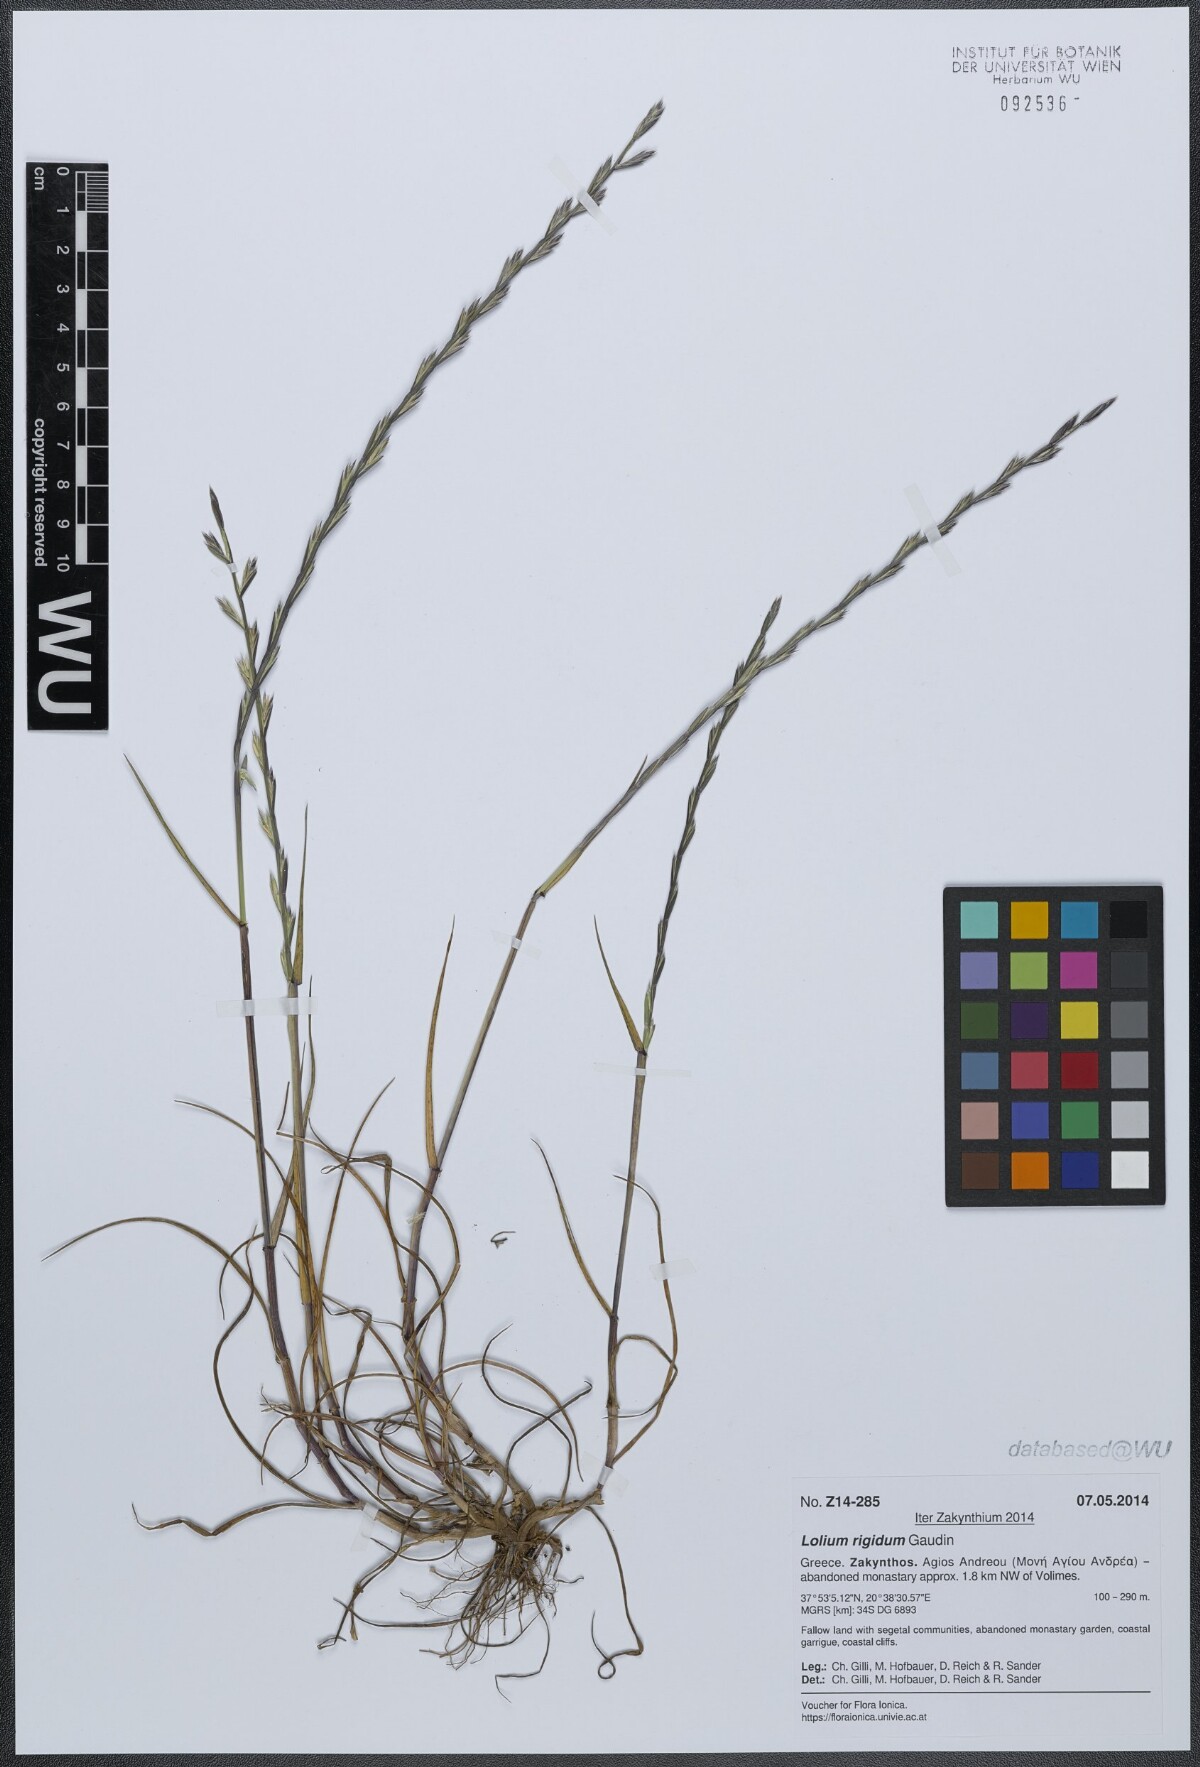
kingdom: Plantae
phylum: Tracheophyta
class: Liliopsida
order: Poales
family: Poaceae
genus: Lolium
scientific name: Lolium rigidum
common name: Wimmera ryegrass
